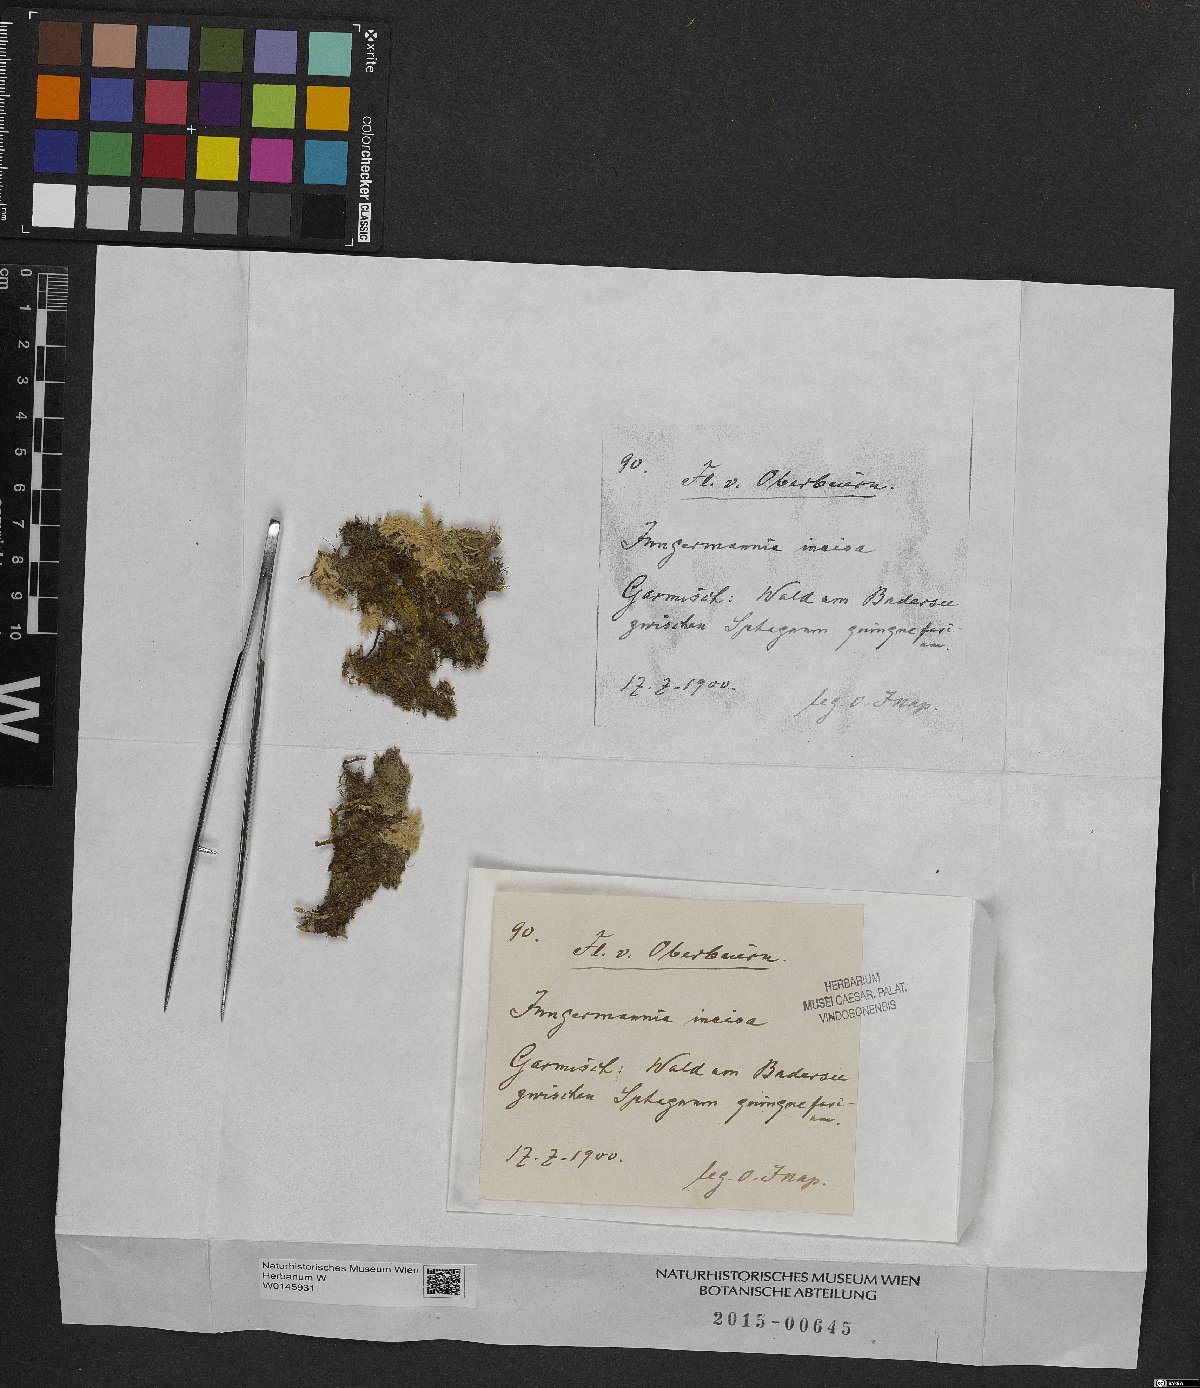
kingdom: Plantae
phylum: Marchantiophyta
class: Jungermanniopsida
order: Jungermanniales
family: Scapaniaceae
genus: Schistochilopsis
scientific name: Schistochilopsis incisa
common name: Jagged notchwort
